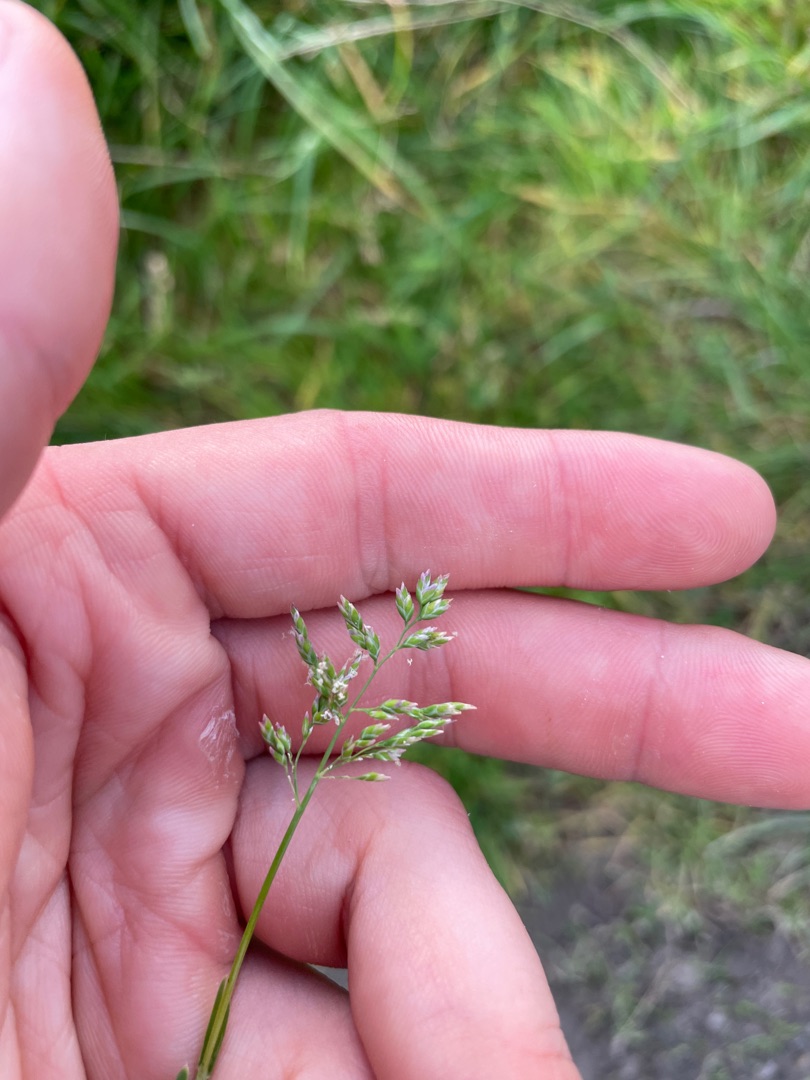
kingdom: Plantae
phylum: Tracheophyta
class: Liliopsida
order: Poales
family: Poaceae
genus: Poa
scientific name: Poa annua
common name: Enårig rapgræs
